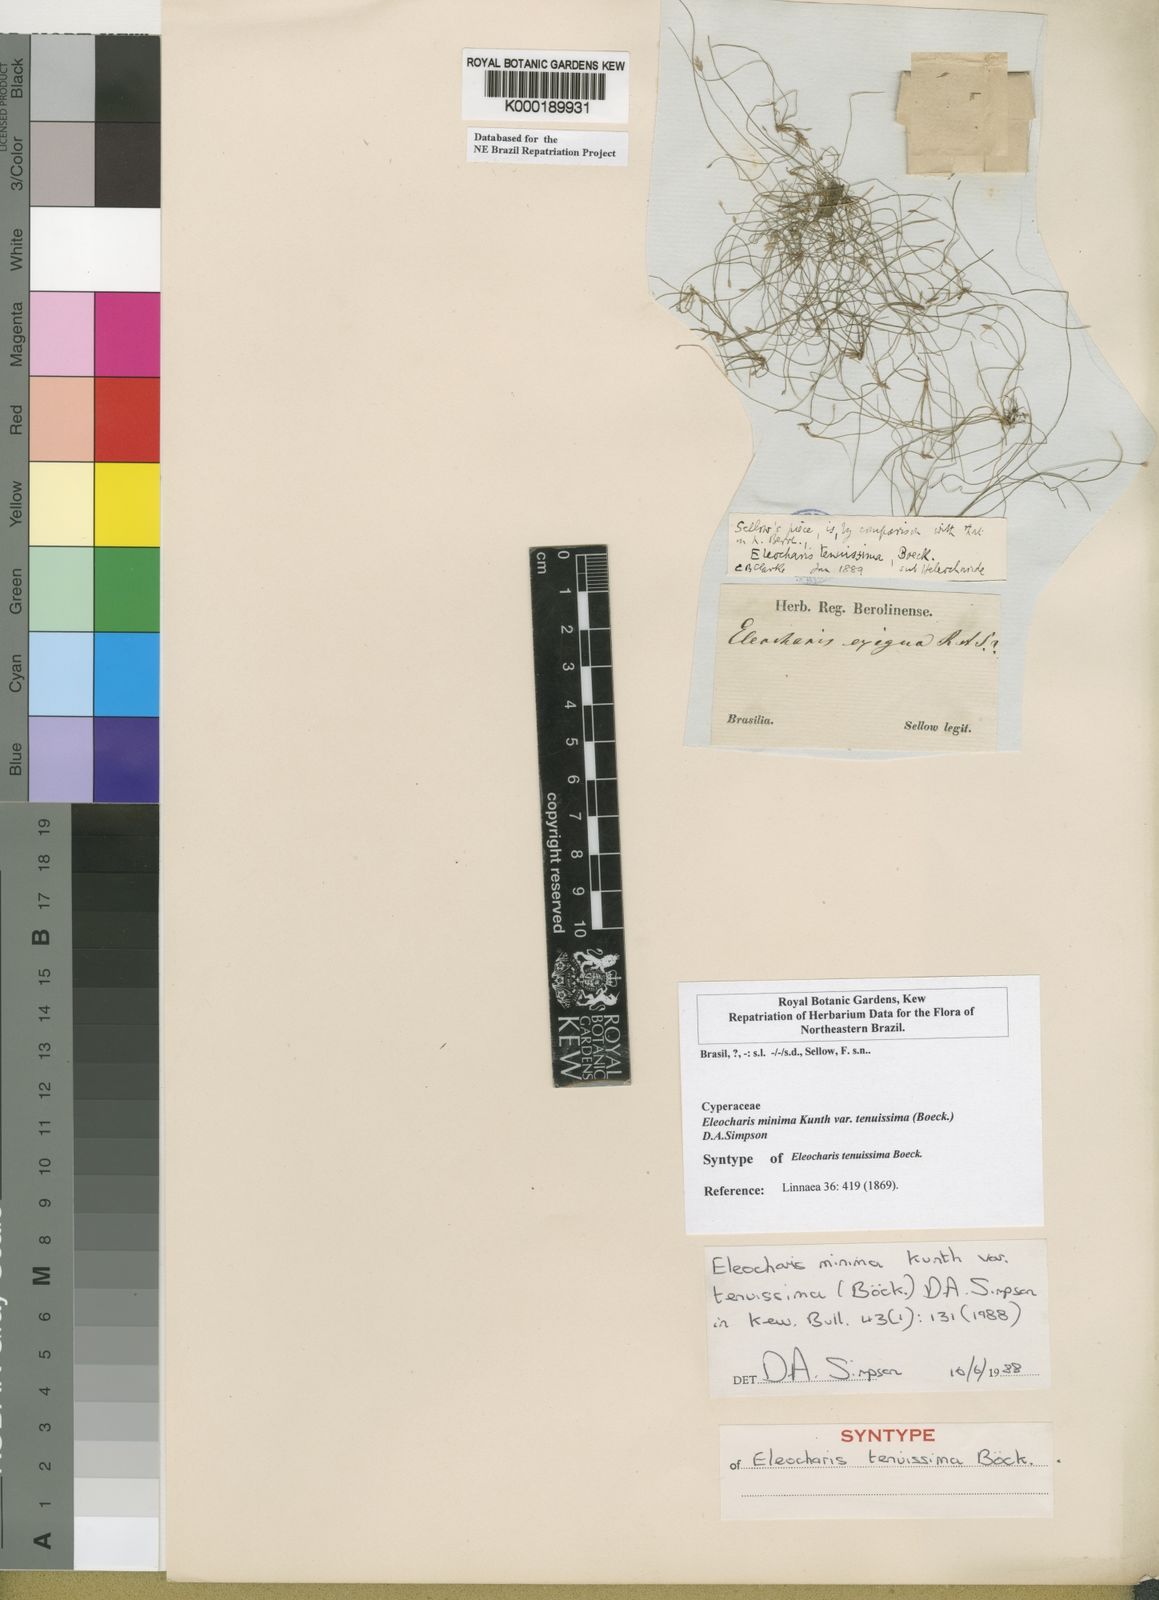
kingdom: Plantae
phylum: Tracheophyta
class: Liliopsida
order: Poales
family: Cyperaceae
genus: Eleocharis
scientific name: Eleocharis minima
